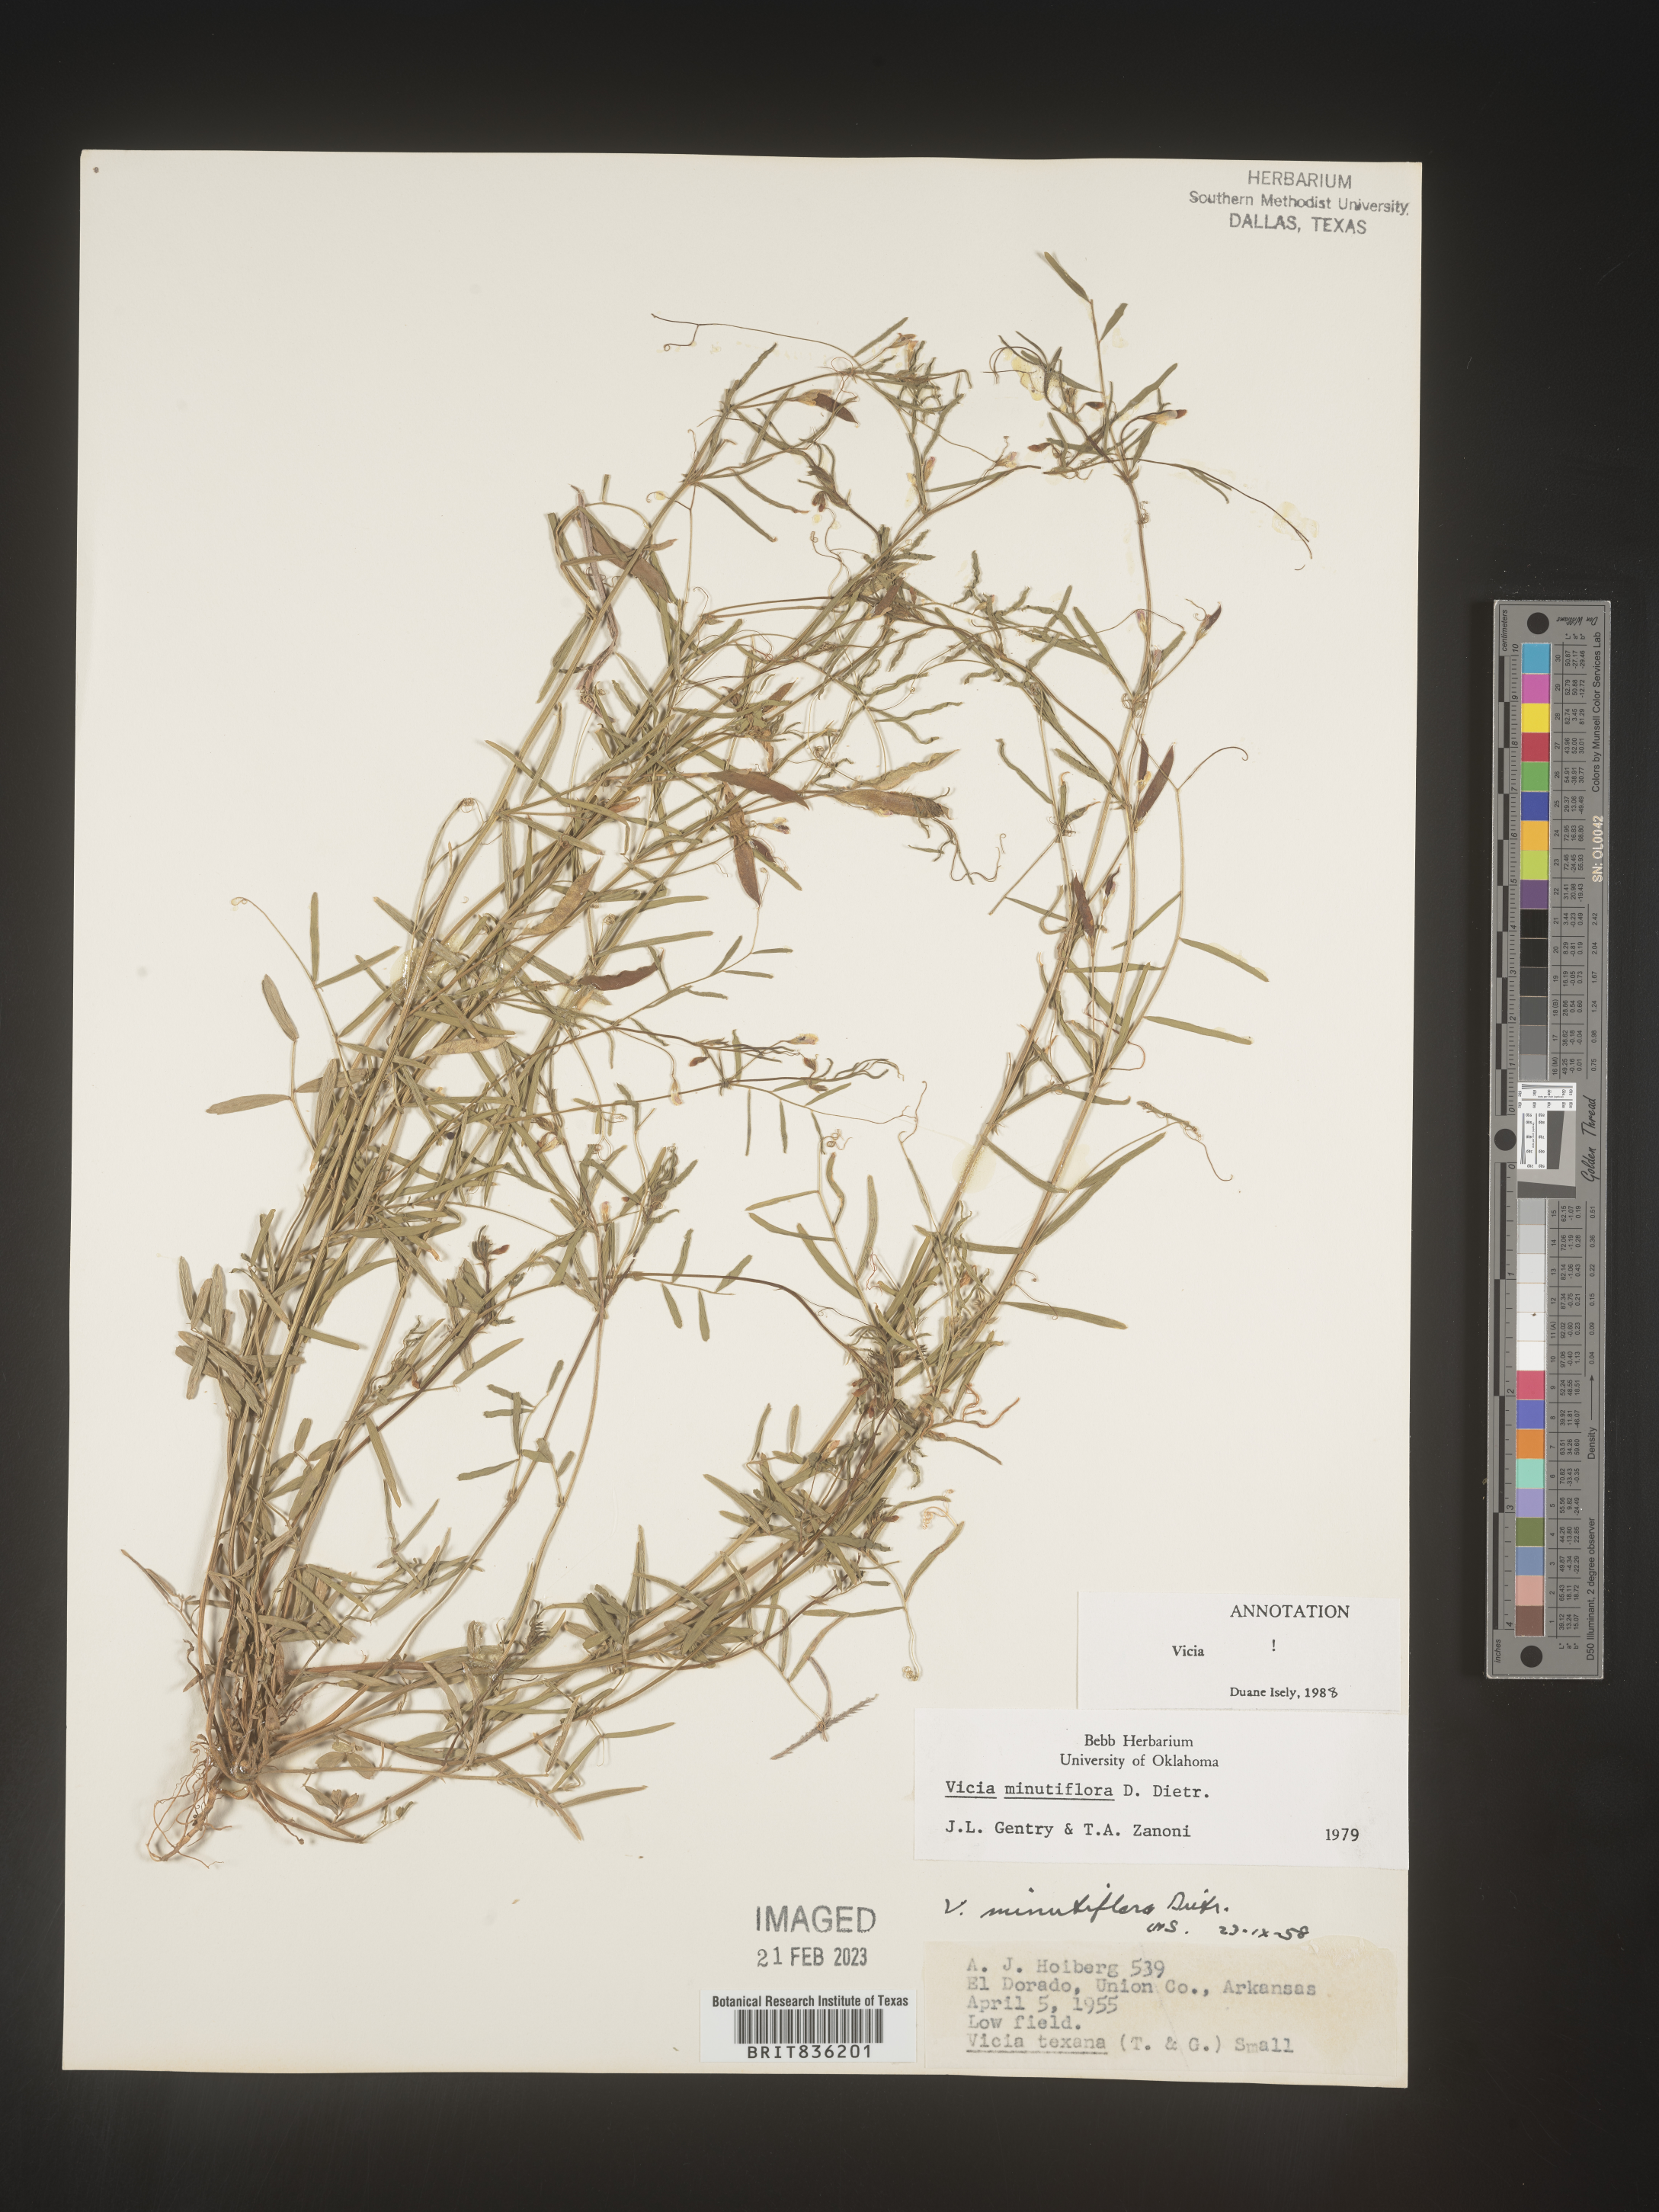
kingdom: Plantae
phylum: Tracheophyta
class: Magnoliopsida
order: Fabales
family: Fabaceae
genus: Vicia
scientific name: Vicia minutiflora
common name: Pygmy-flower vetch
